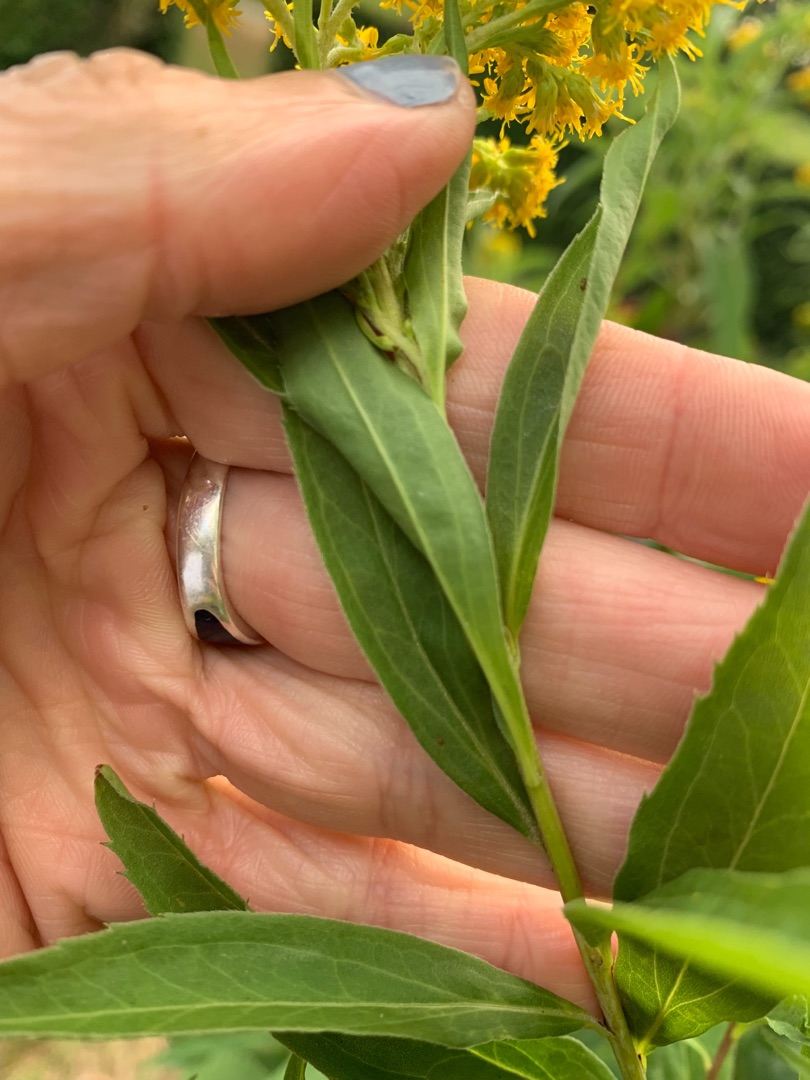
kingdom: Plantae
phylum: Tracheophyta
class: Magnoliopsida
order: Asterales
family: Asteraceae
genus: Solidago
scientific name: Solidago gigantea
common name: Sildig gyldenris
